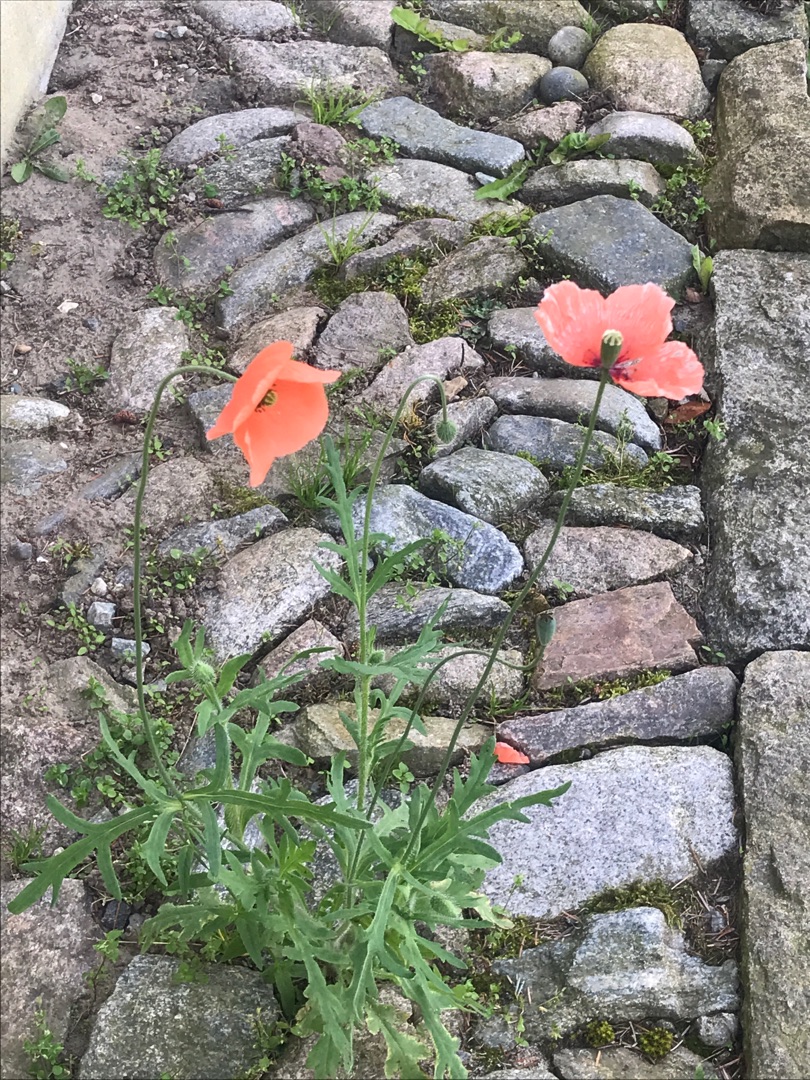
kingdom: Plantae
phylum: Tracheophyta
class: Magnoliopsida
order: Ranunculales
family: Papaveraceae
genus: Papaver
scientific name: Papaver dubium
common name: Gærde-valmue
